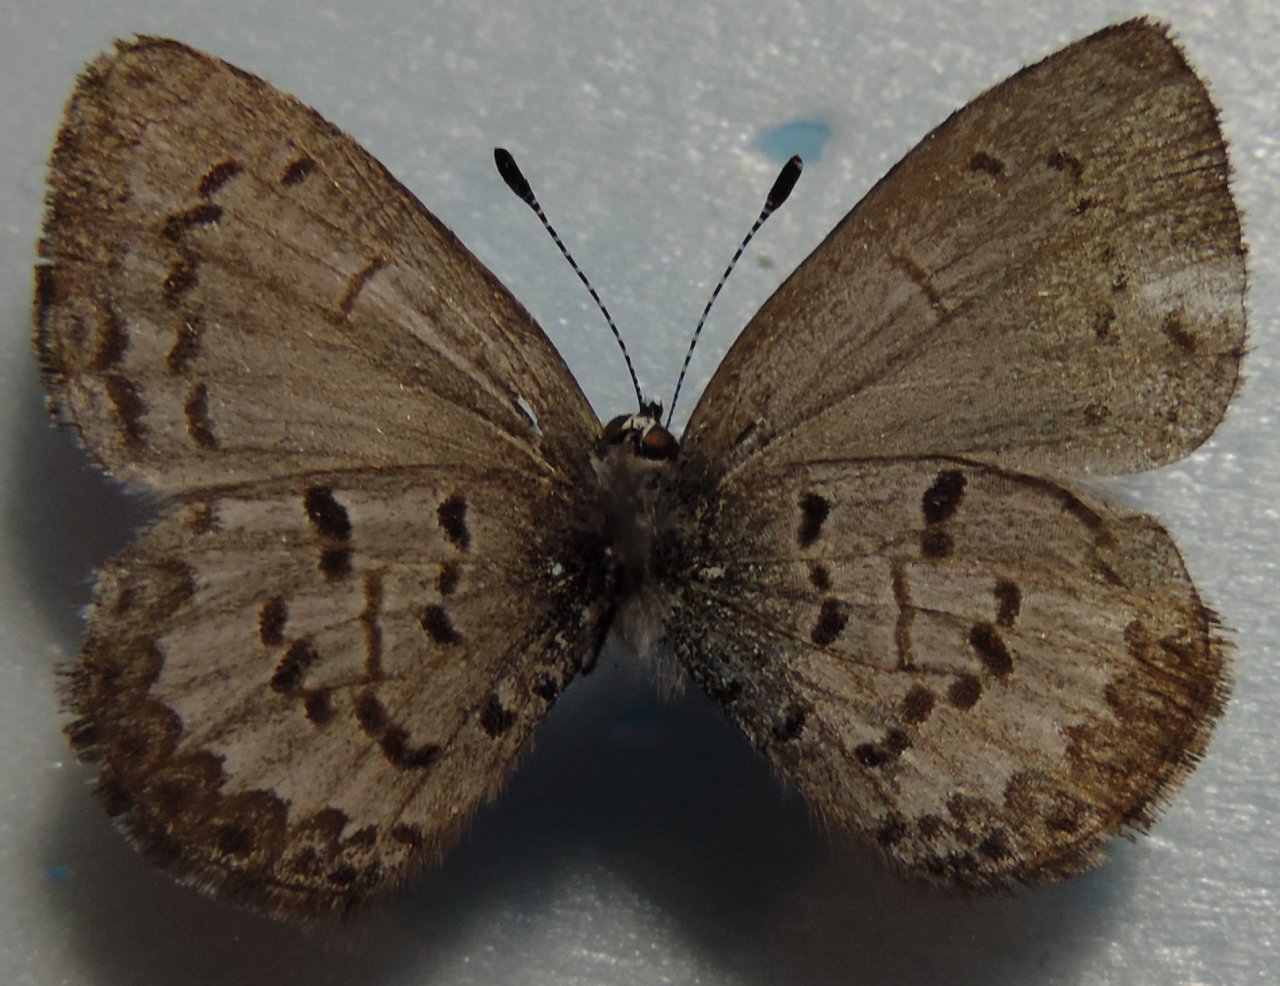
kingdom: Animalia
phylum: Arthropoda
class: Insecta
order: Lepidoptera
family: Lycaenidae
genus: Celastrina
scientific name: Celastrina lucia
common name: Northern Spring Azure
